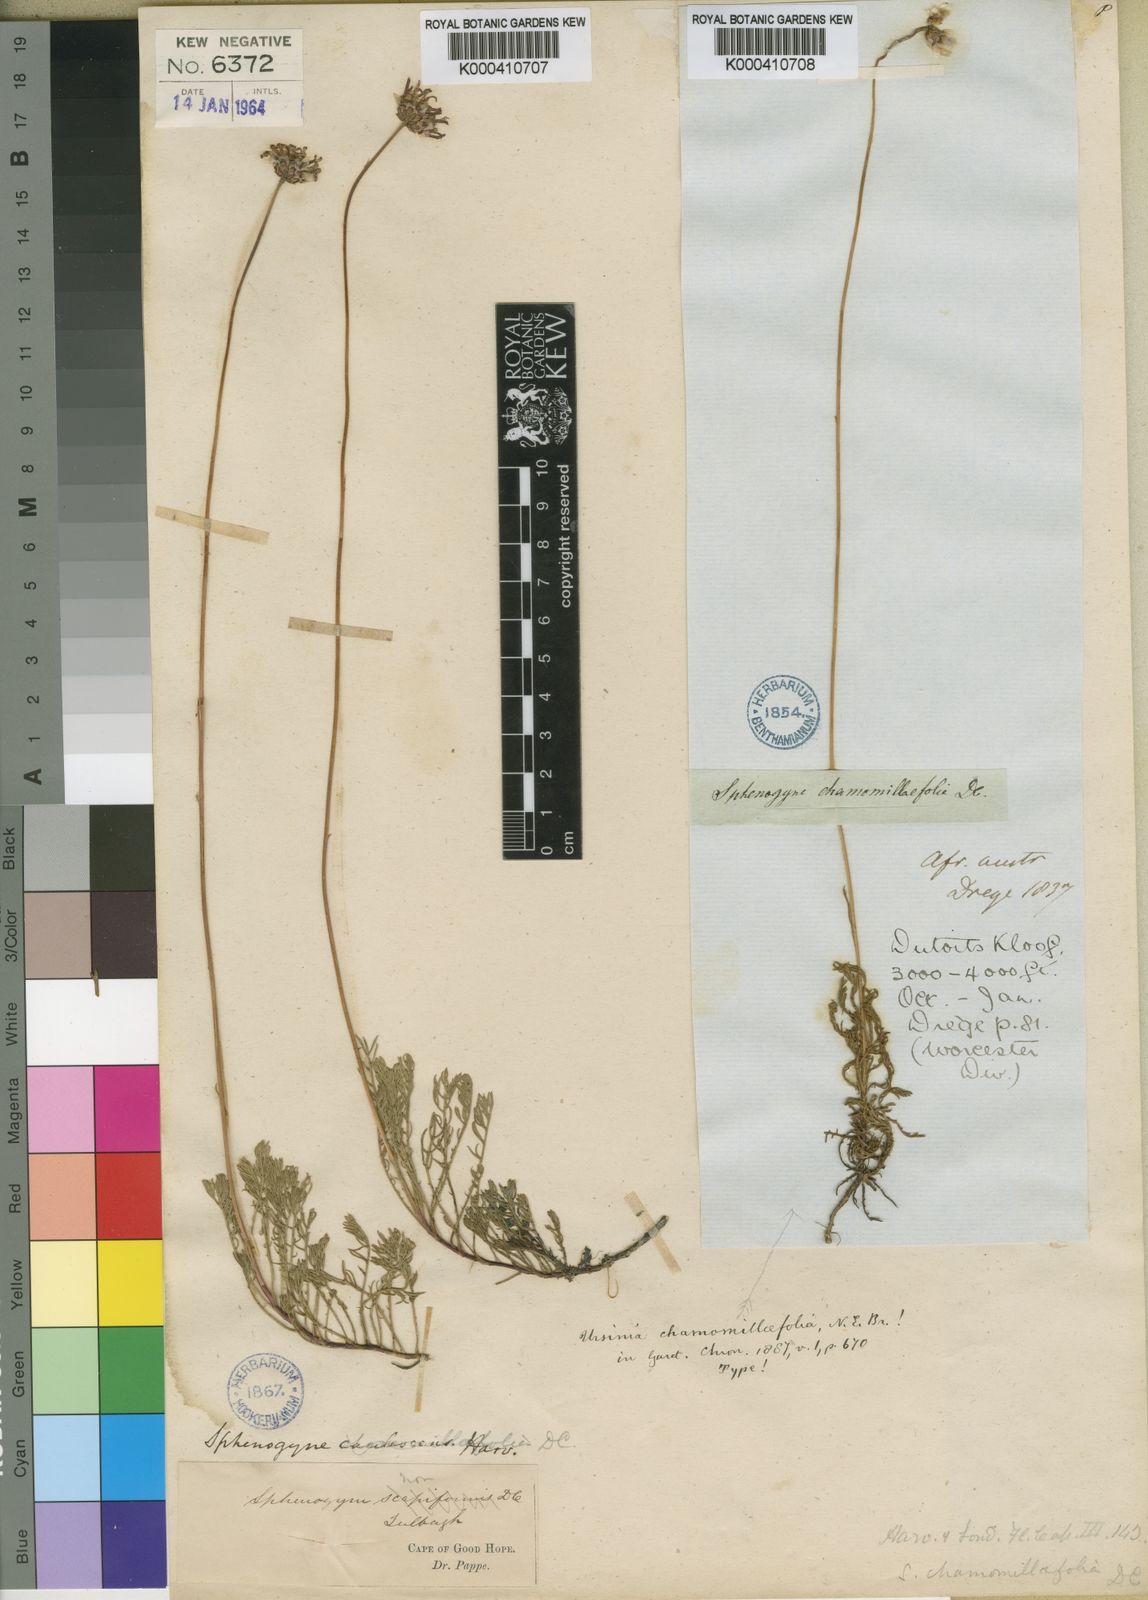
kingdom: Plantae
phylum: Tracheophyta
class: Magnoliopsida
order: Asterales
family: Asteraceae
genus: Ursinia
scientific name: Ursinia nudicaulis
